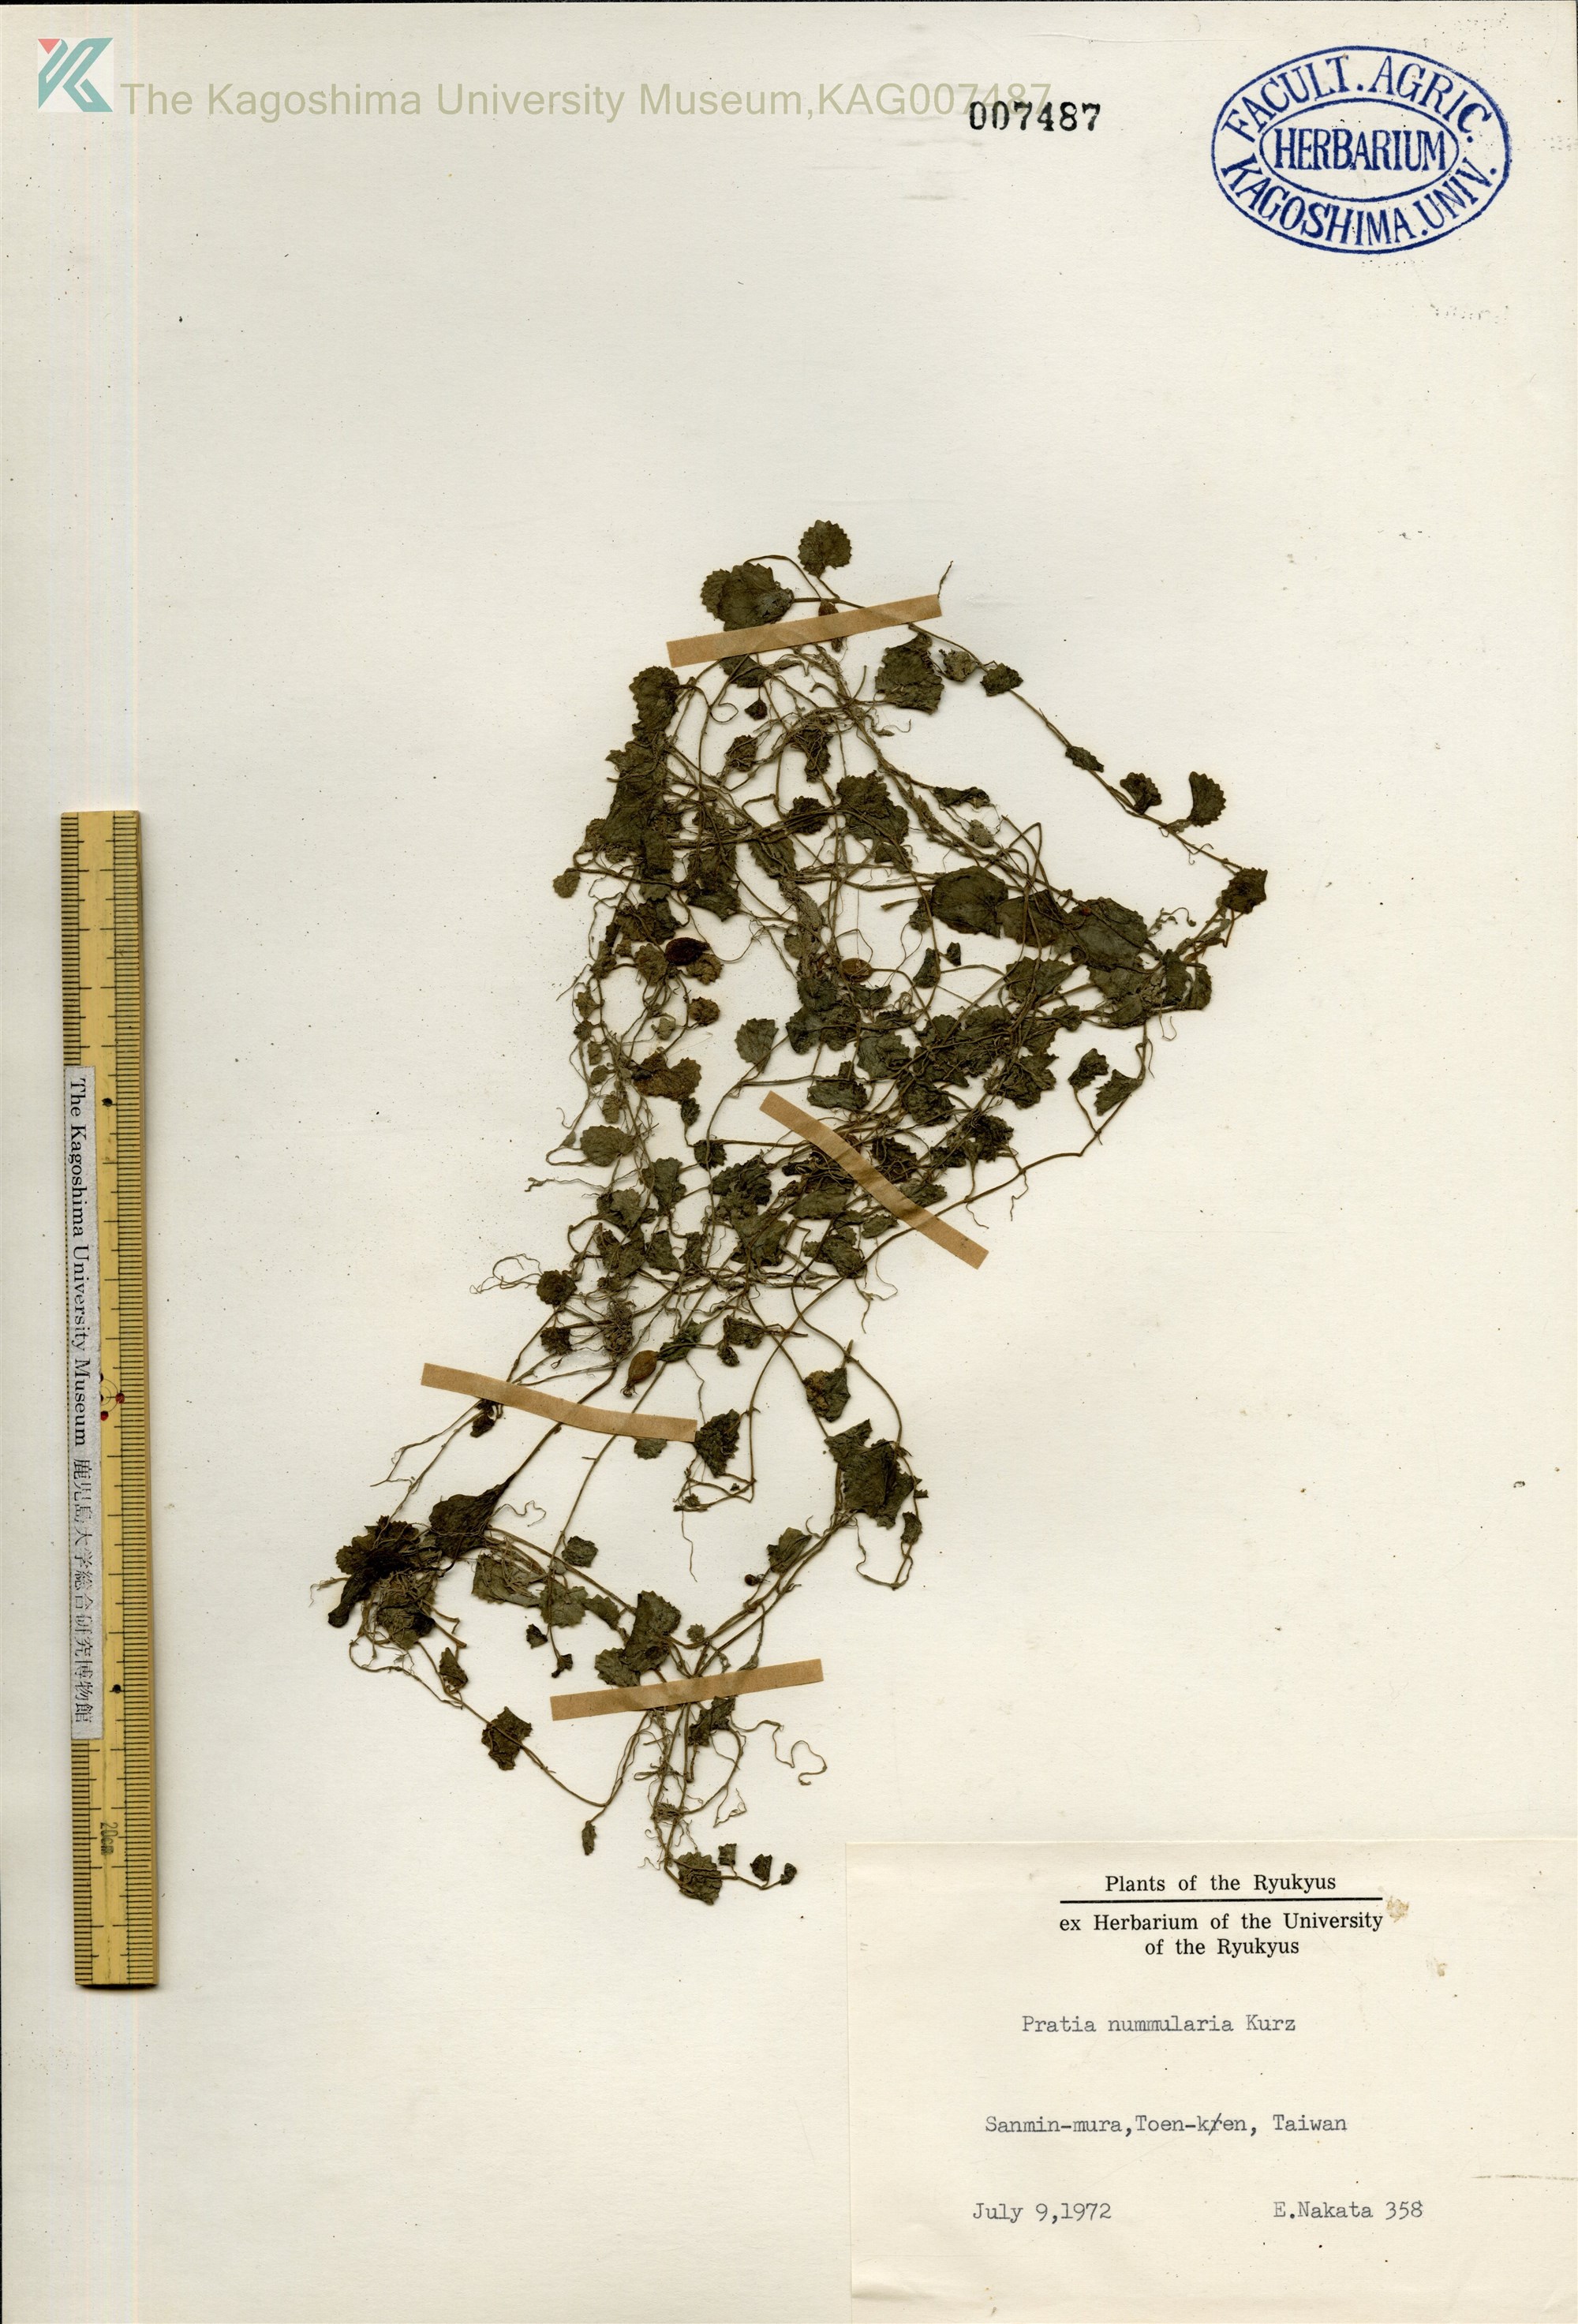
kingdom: Plantae
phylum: Tracheophyta
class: Magnoliopsida
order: Asterales
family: Campanulaceae
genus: Lobelia
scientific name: Lobelia angulata
